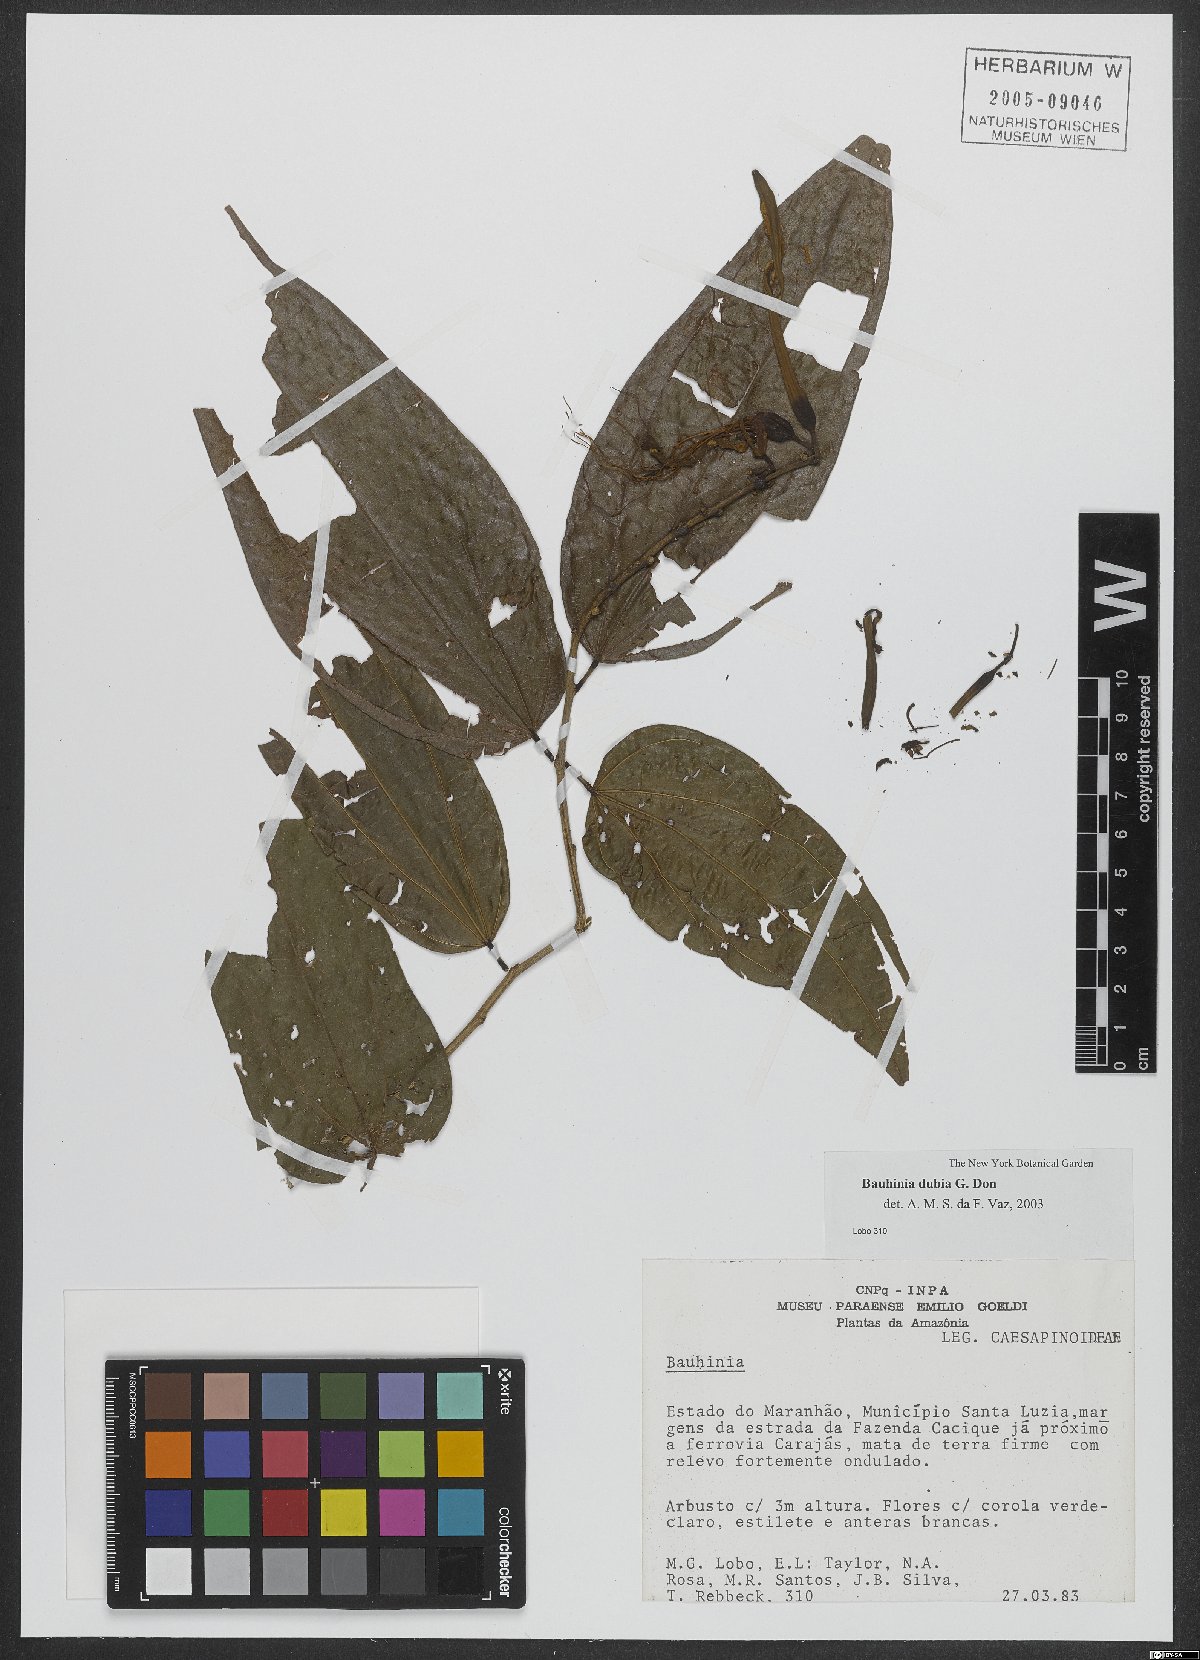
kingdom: Plantae
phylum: Tracheophyta
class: Magnoliopsida
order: Fabales
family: Fabaceae
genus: Bauhinia
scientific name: Bauhinia dubia
